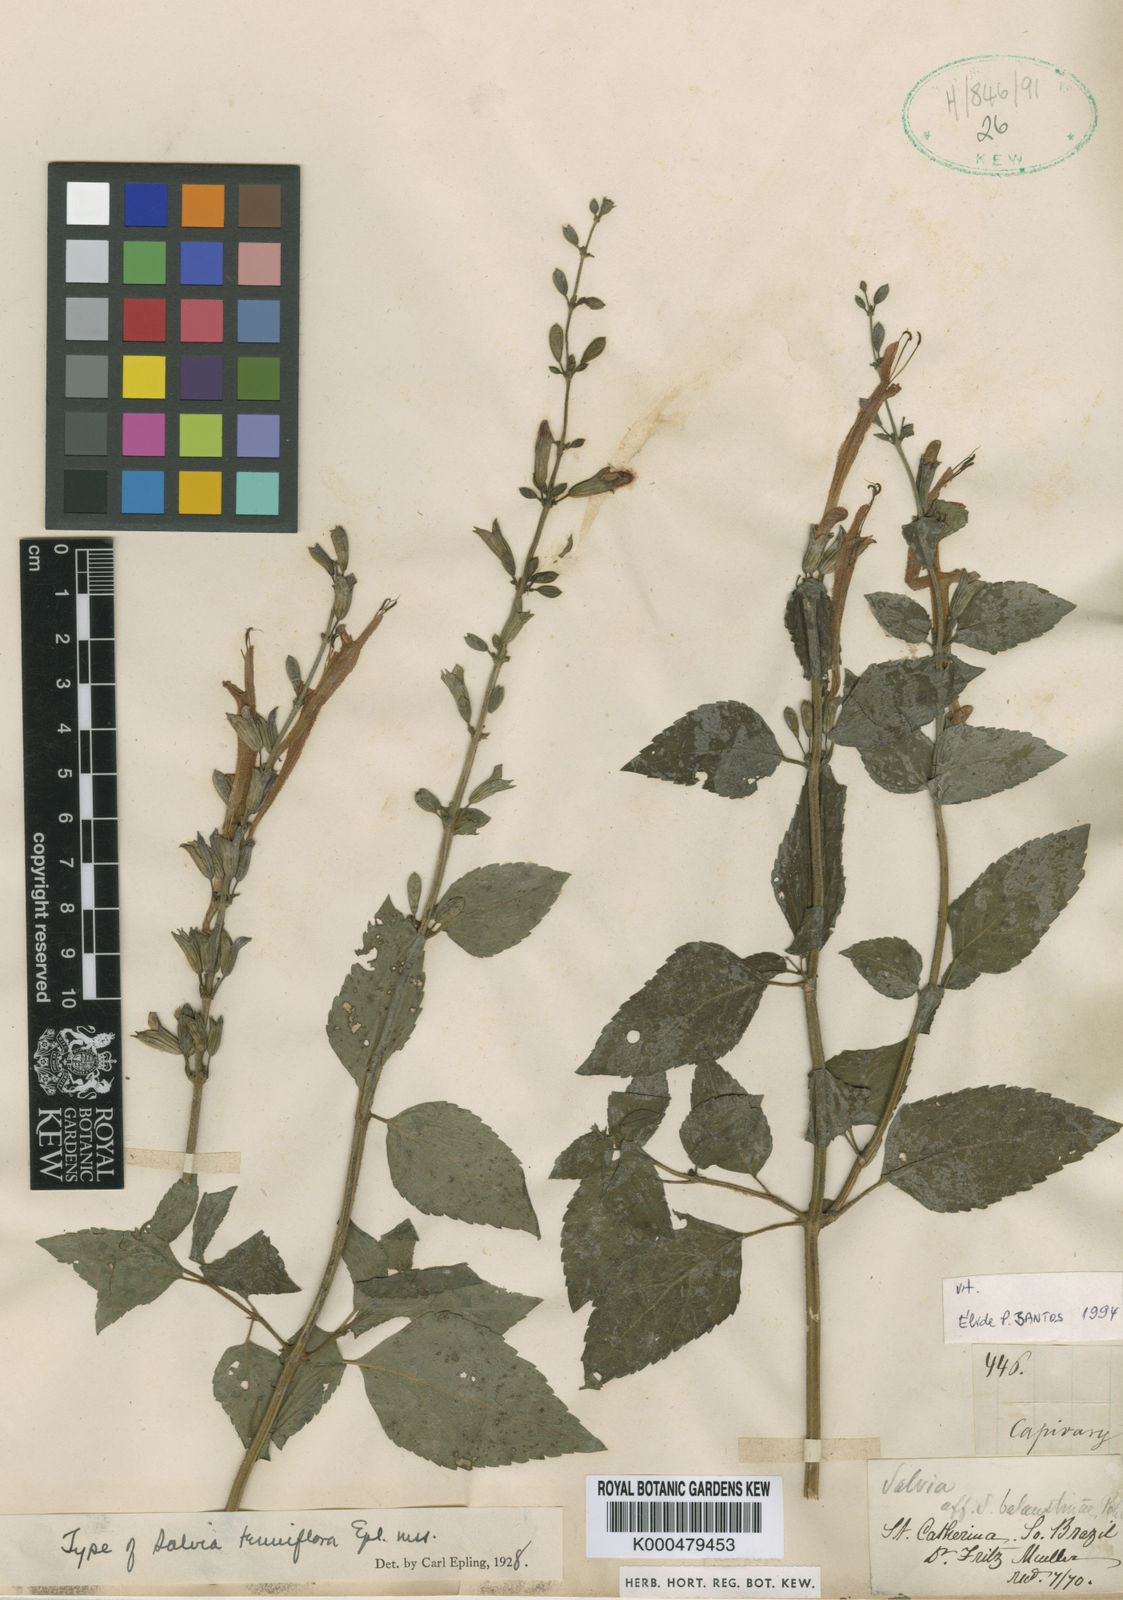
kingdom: Plantae
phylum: Tracheophyta
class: Magnoliopsida
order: Lamiales
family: Lamiaceae
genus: Salvia
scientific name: Salvia tenuiflora
